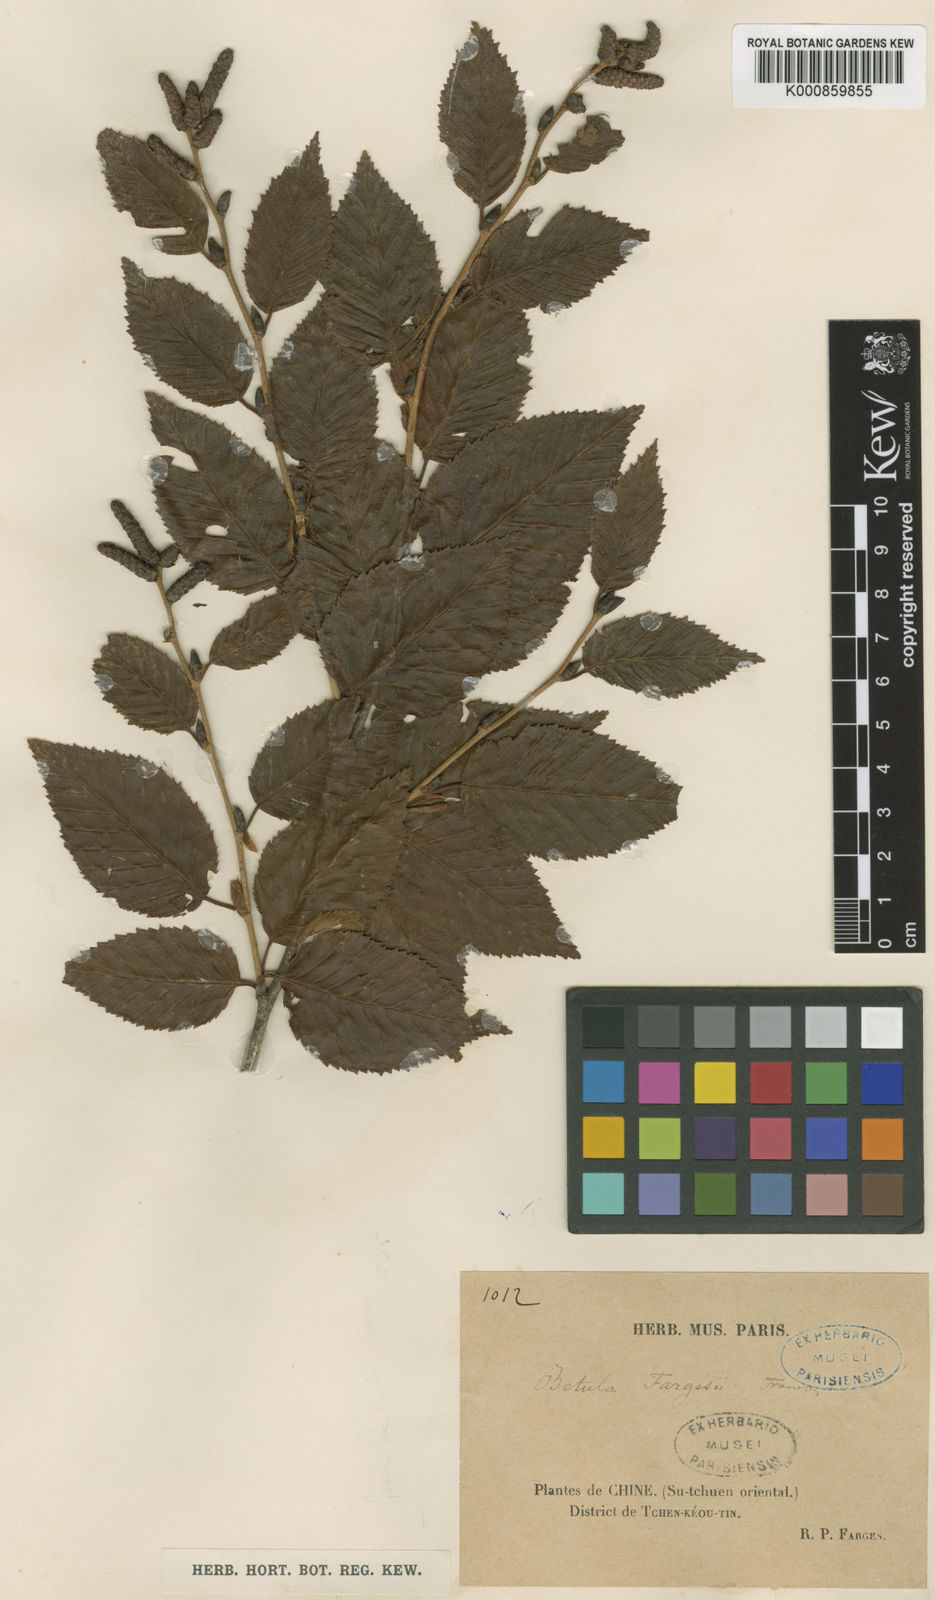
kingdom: Plantae
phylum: Tracheophyta
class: Magnoliopsida
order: Fagales
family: Betulaceae
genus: Betula
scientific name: Betula fargesii
